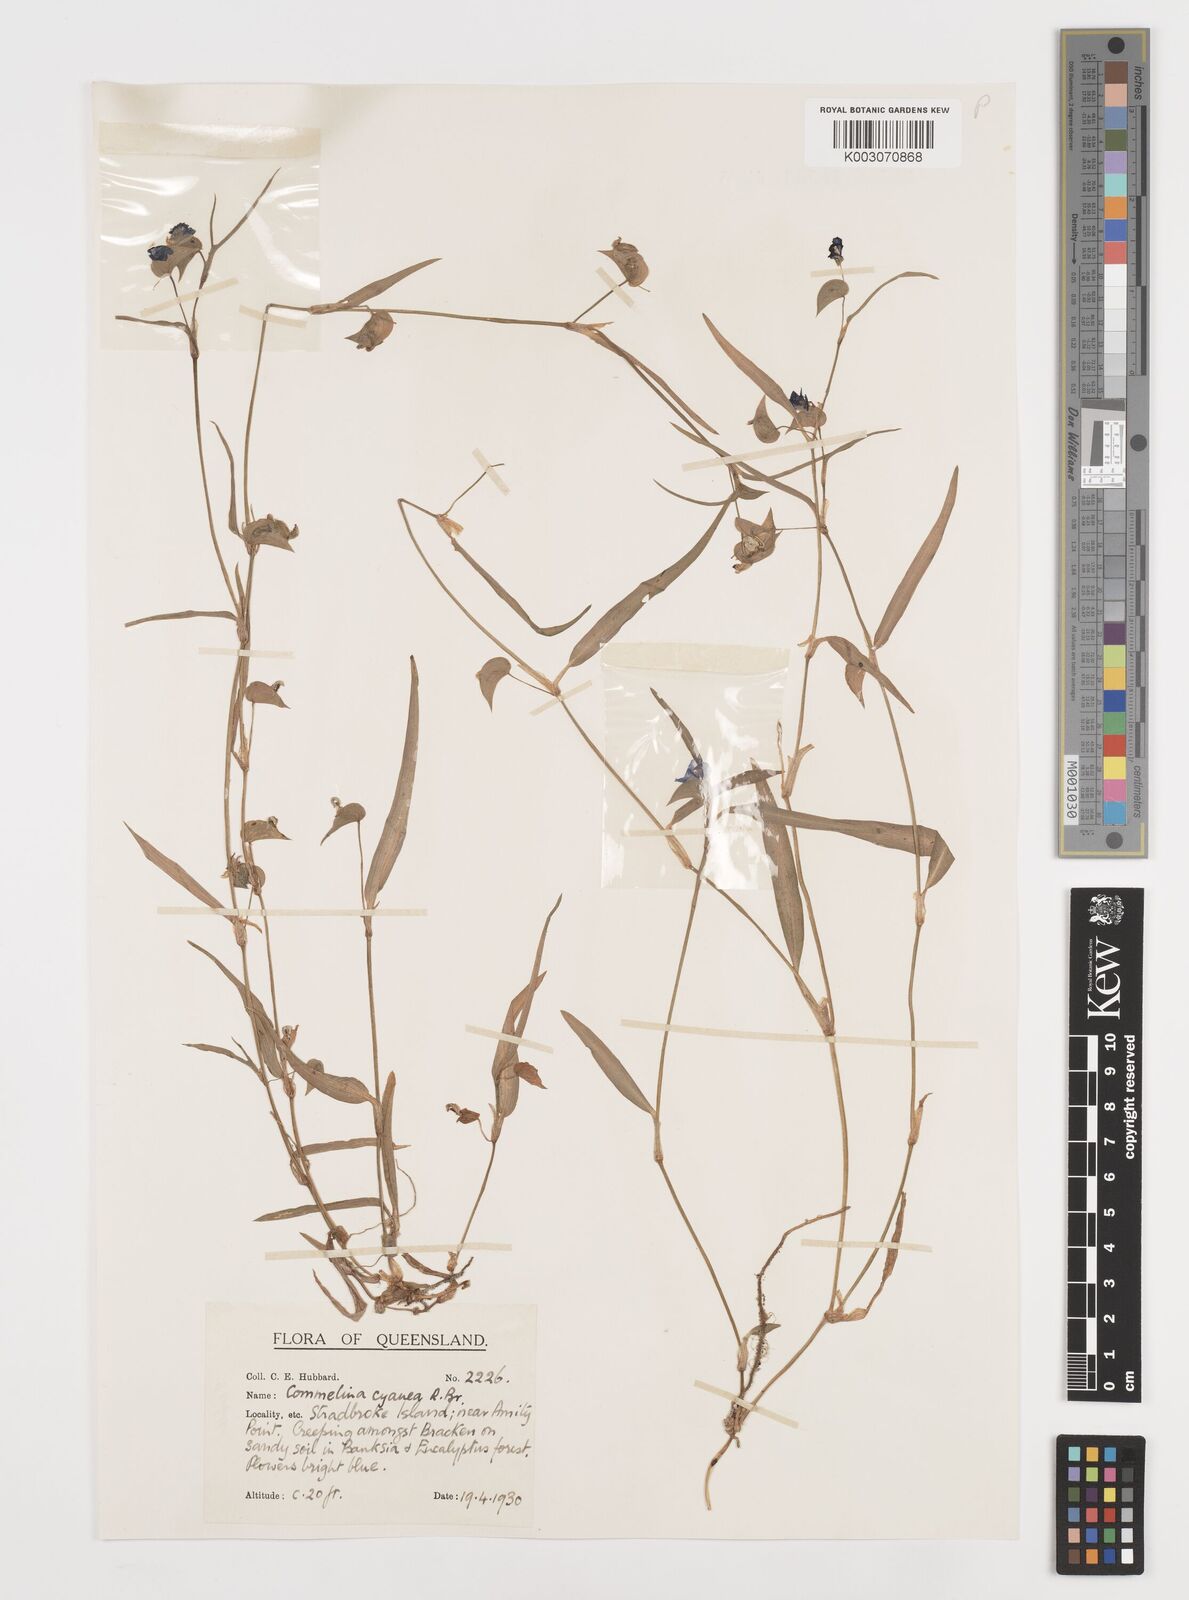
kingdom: Plantae
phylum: Tracheophyta
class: Liliopsida
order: Commelinales
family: Commelinaceae
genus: Commelina
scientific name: Commelina cyanea
